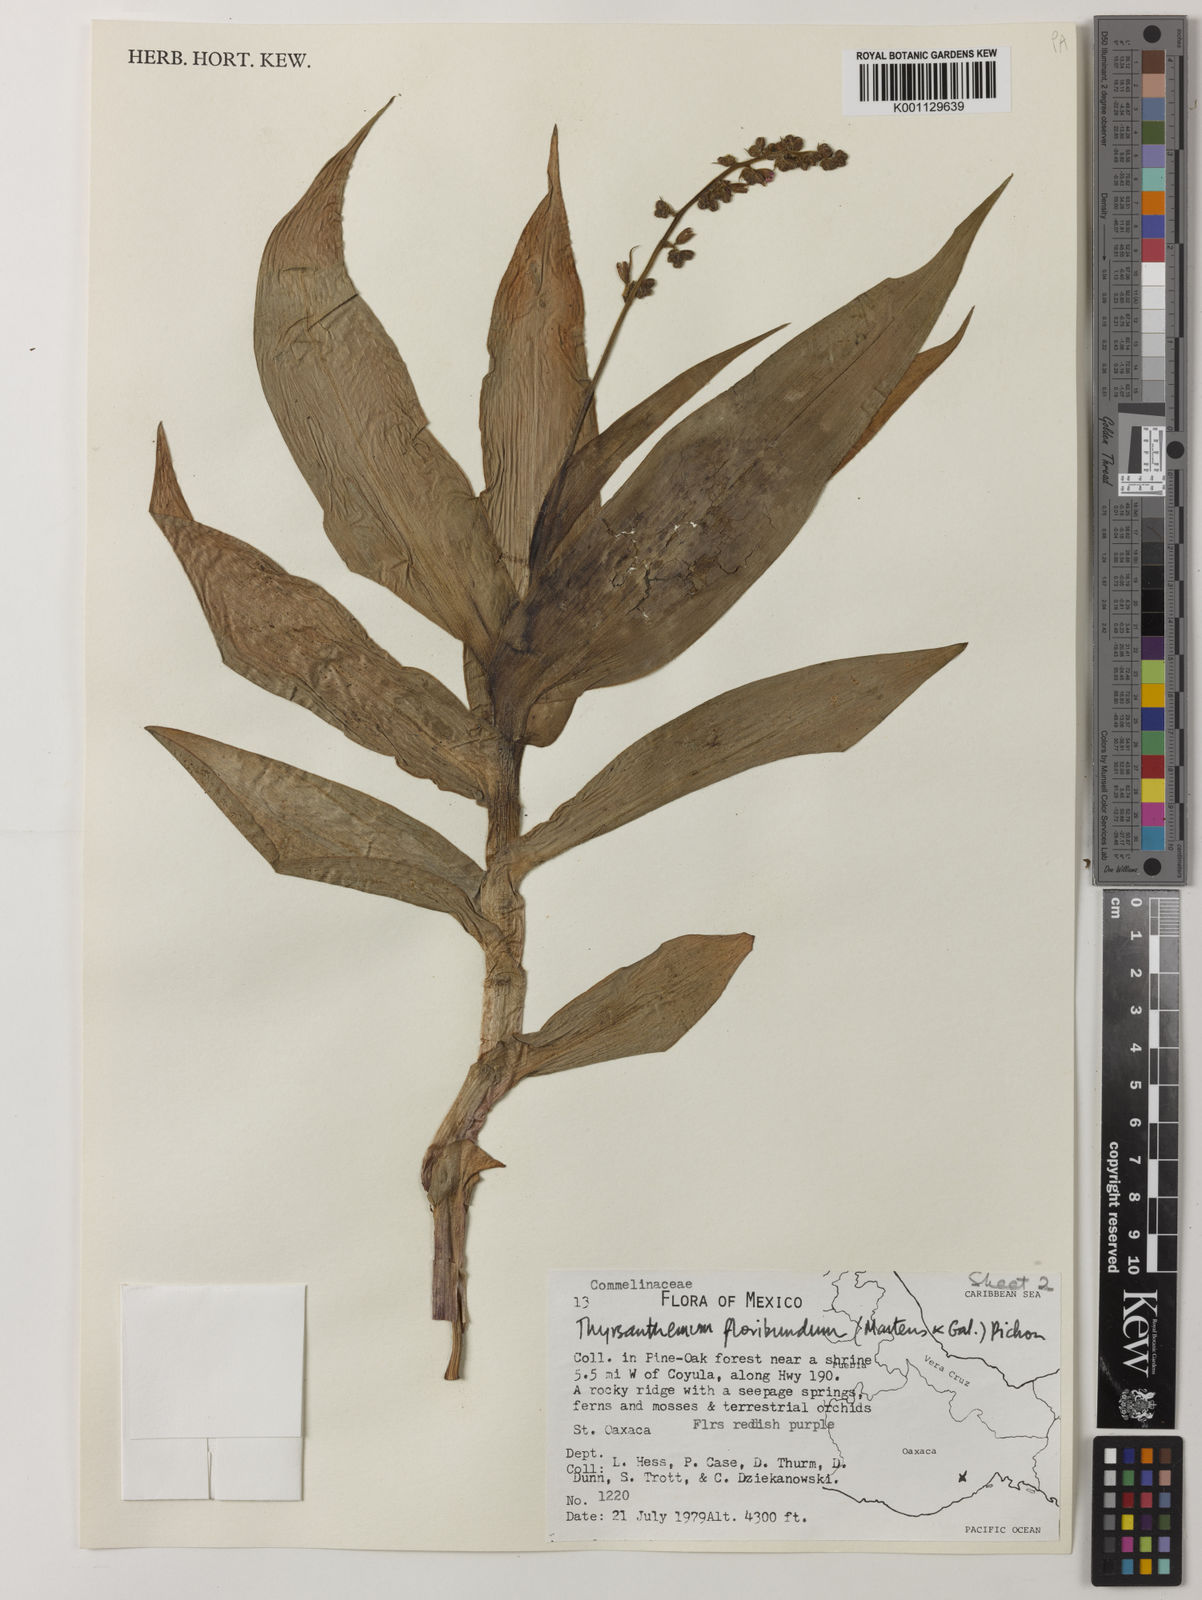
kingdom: Plantae
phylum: Tracheophyta
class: Liliopsida
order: Commelinales
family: Commelinaceae
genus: Thyrsanthemum
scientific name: Thyrsanthemum floribundum
